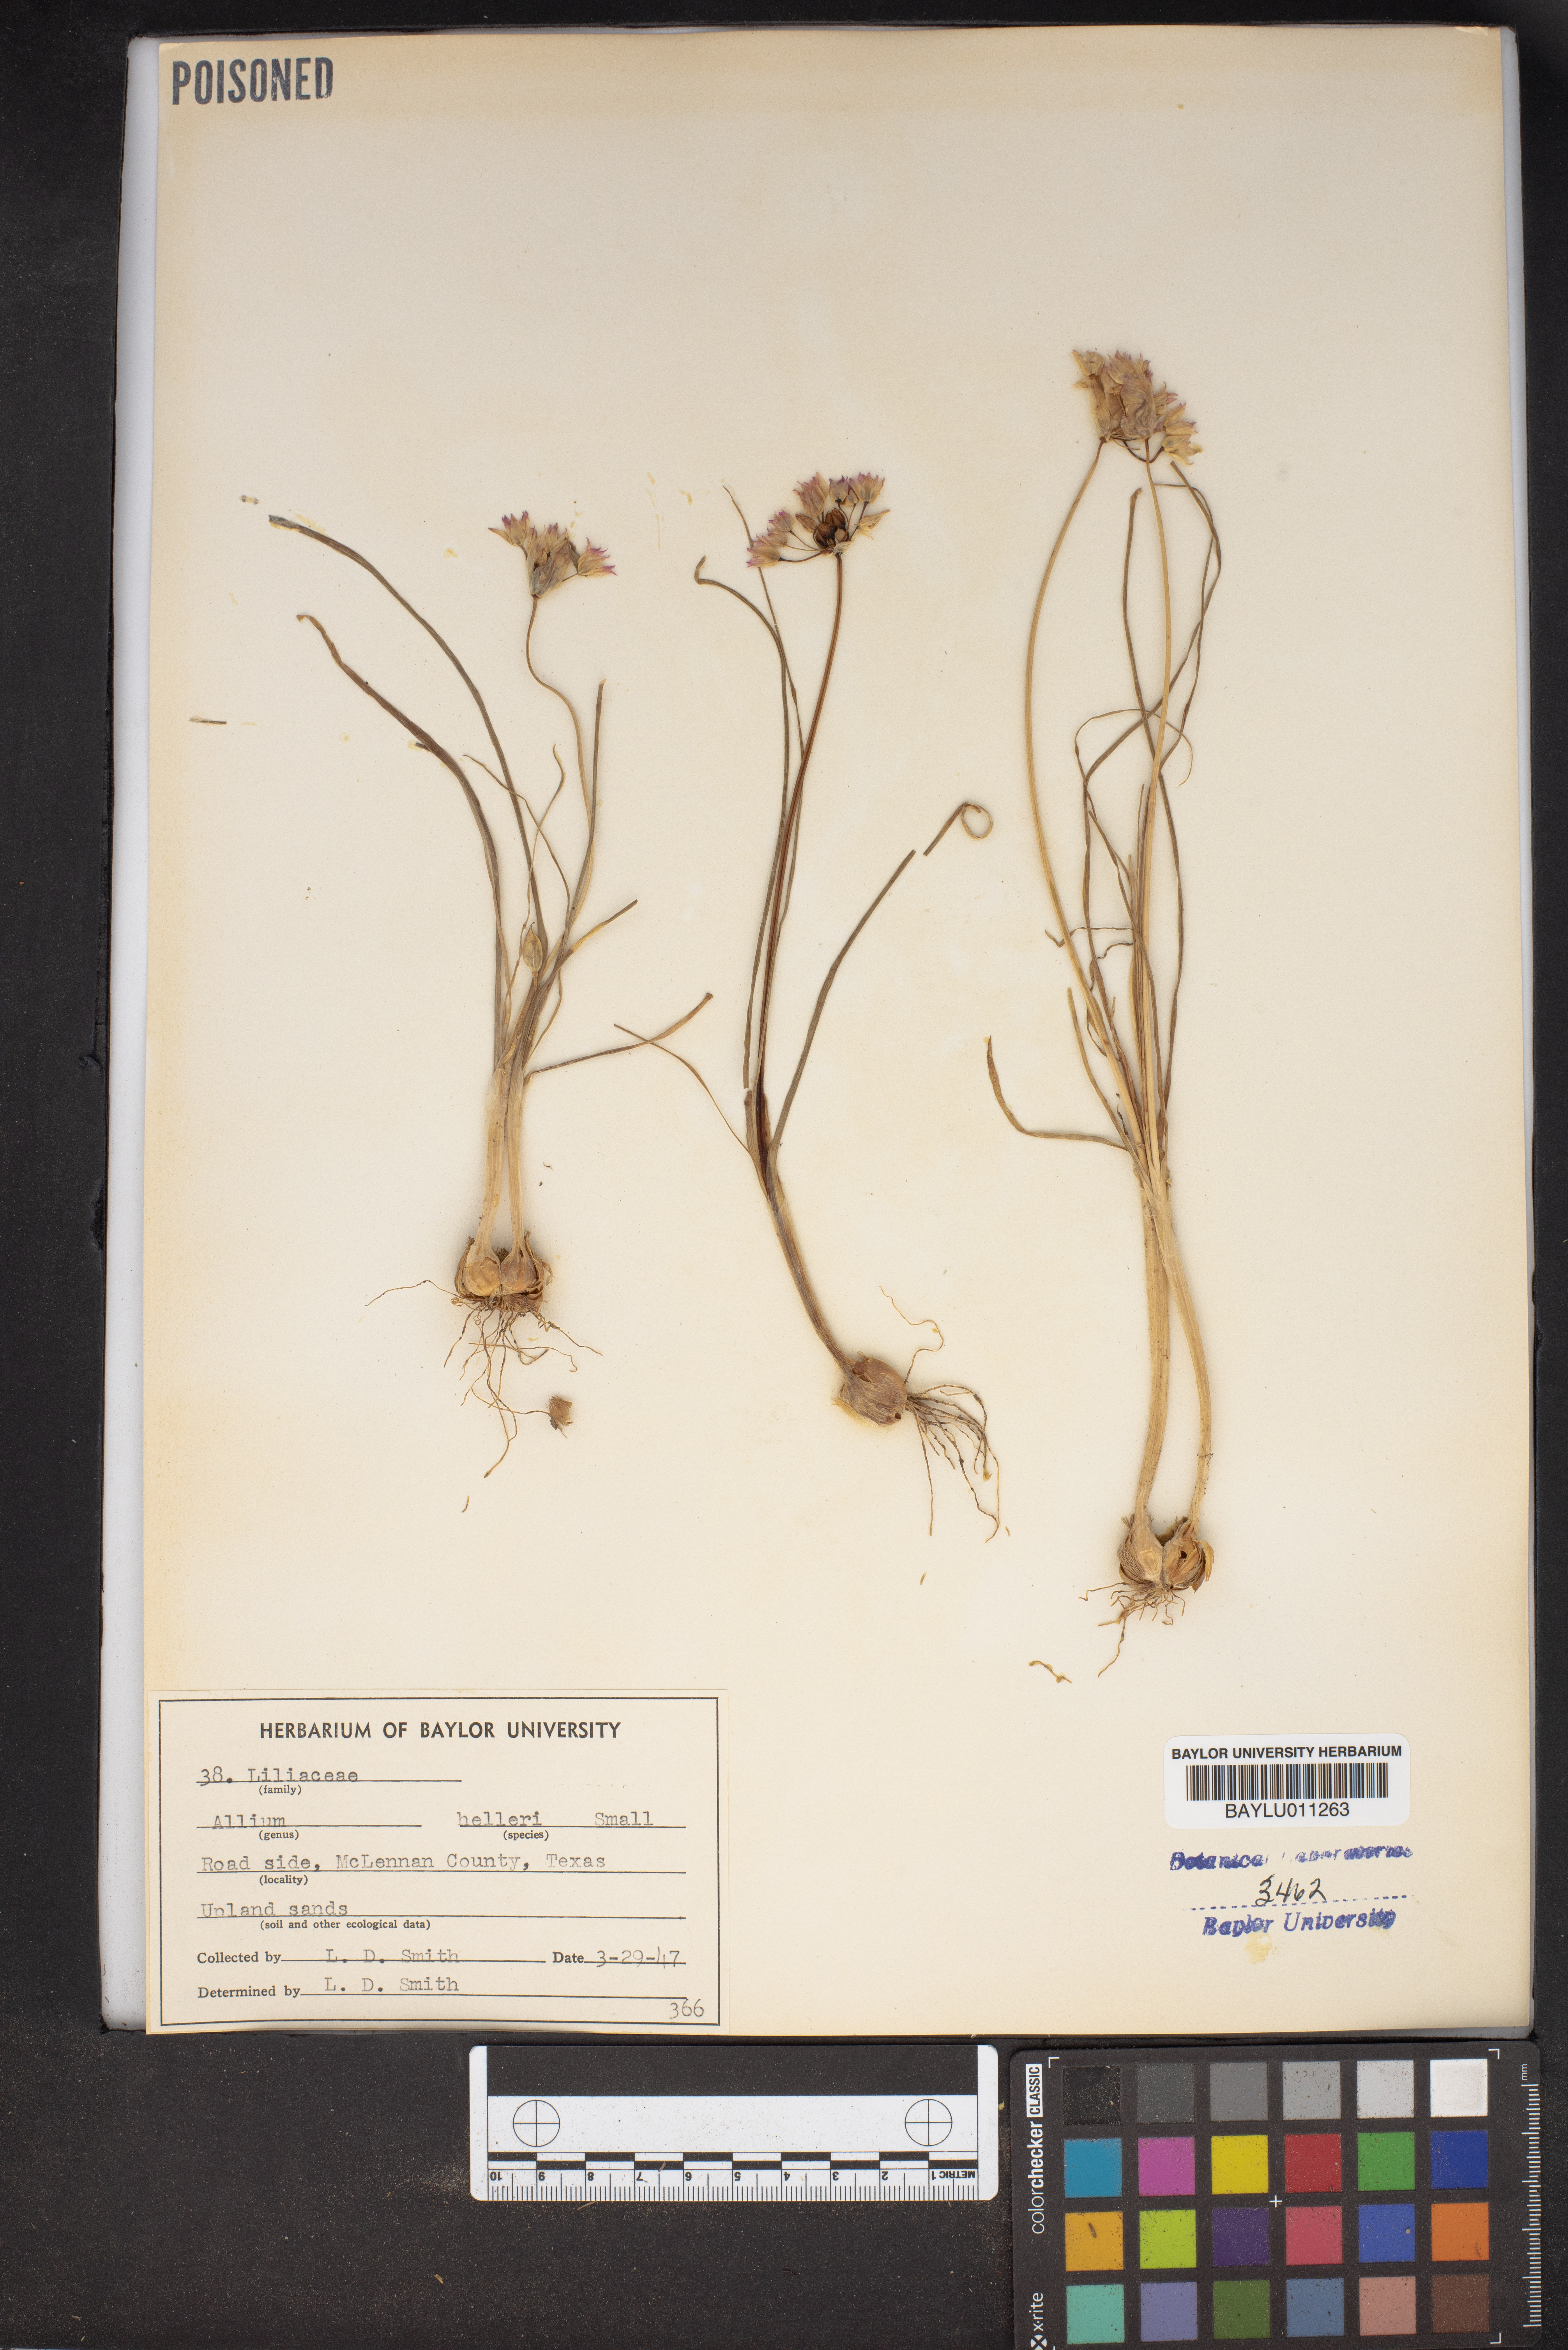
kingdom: Plantae
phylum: Tracheophyta
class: Liliopsida
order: Asparagales
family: Amaryllidaceae
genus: Allium
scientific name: Allium drummondii
